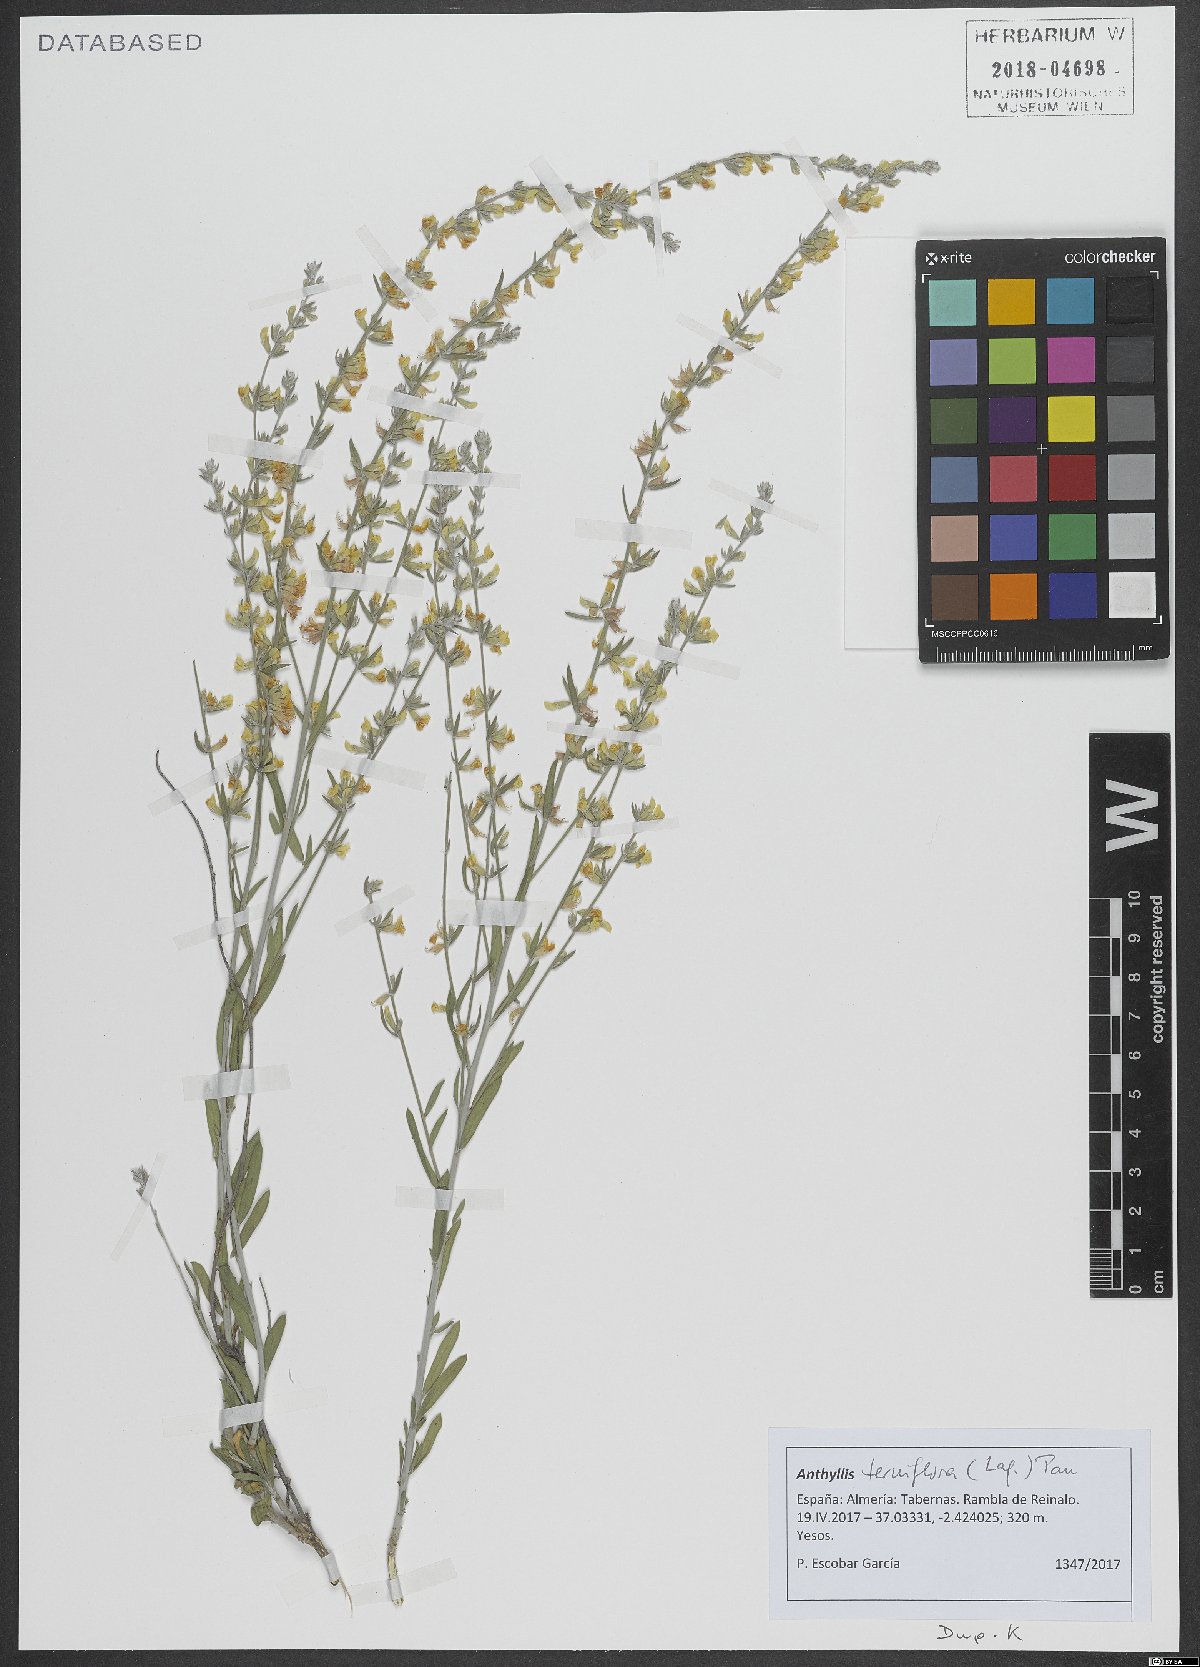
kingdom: Plantae
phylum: Tracheophyta
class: Magnoliopsida
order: Fabales
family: Fabaceae
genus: Anthyllis
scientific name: Anthyllis terniflora
